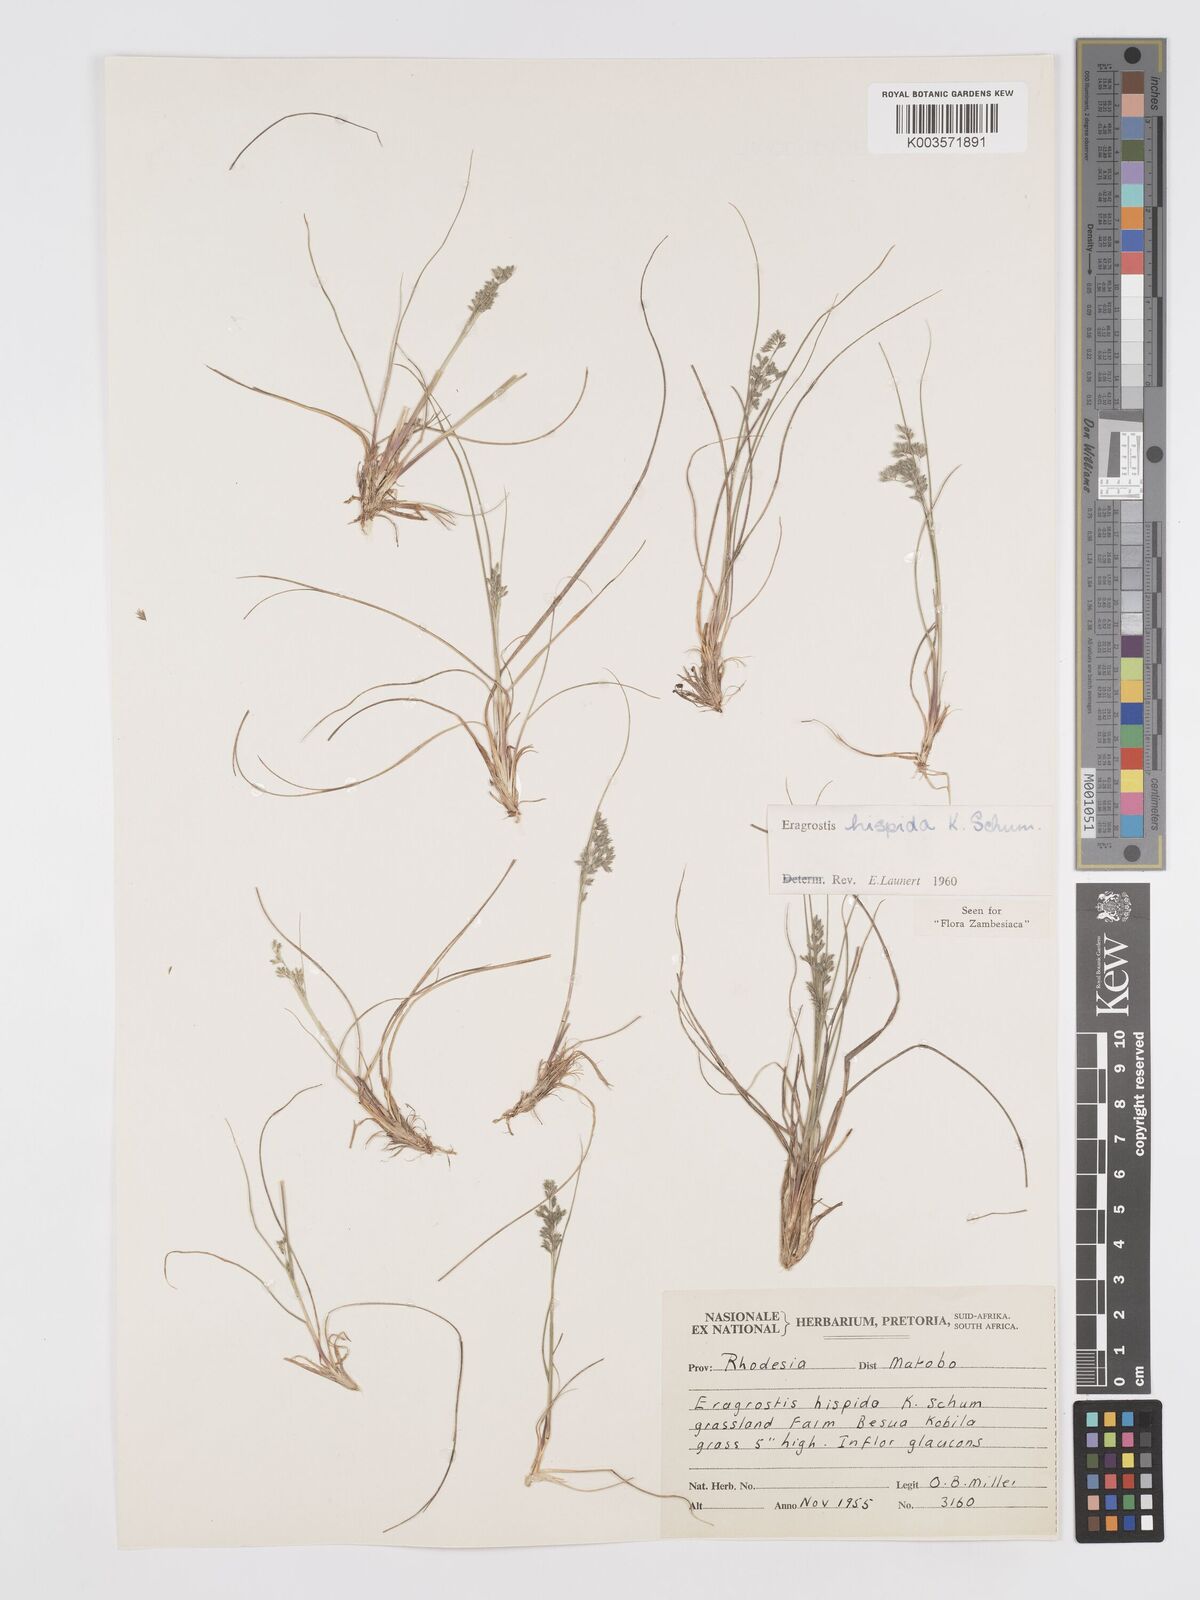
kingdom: Plantae
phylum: Tracheophyta
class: Liliopsida
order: Poales
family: Poaceae
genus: Eragrostis
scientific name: Eragrostis hispida
